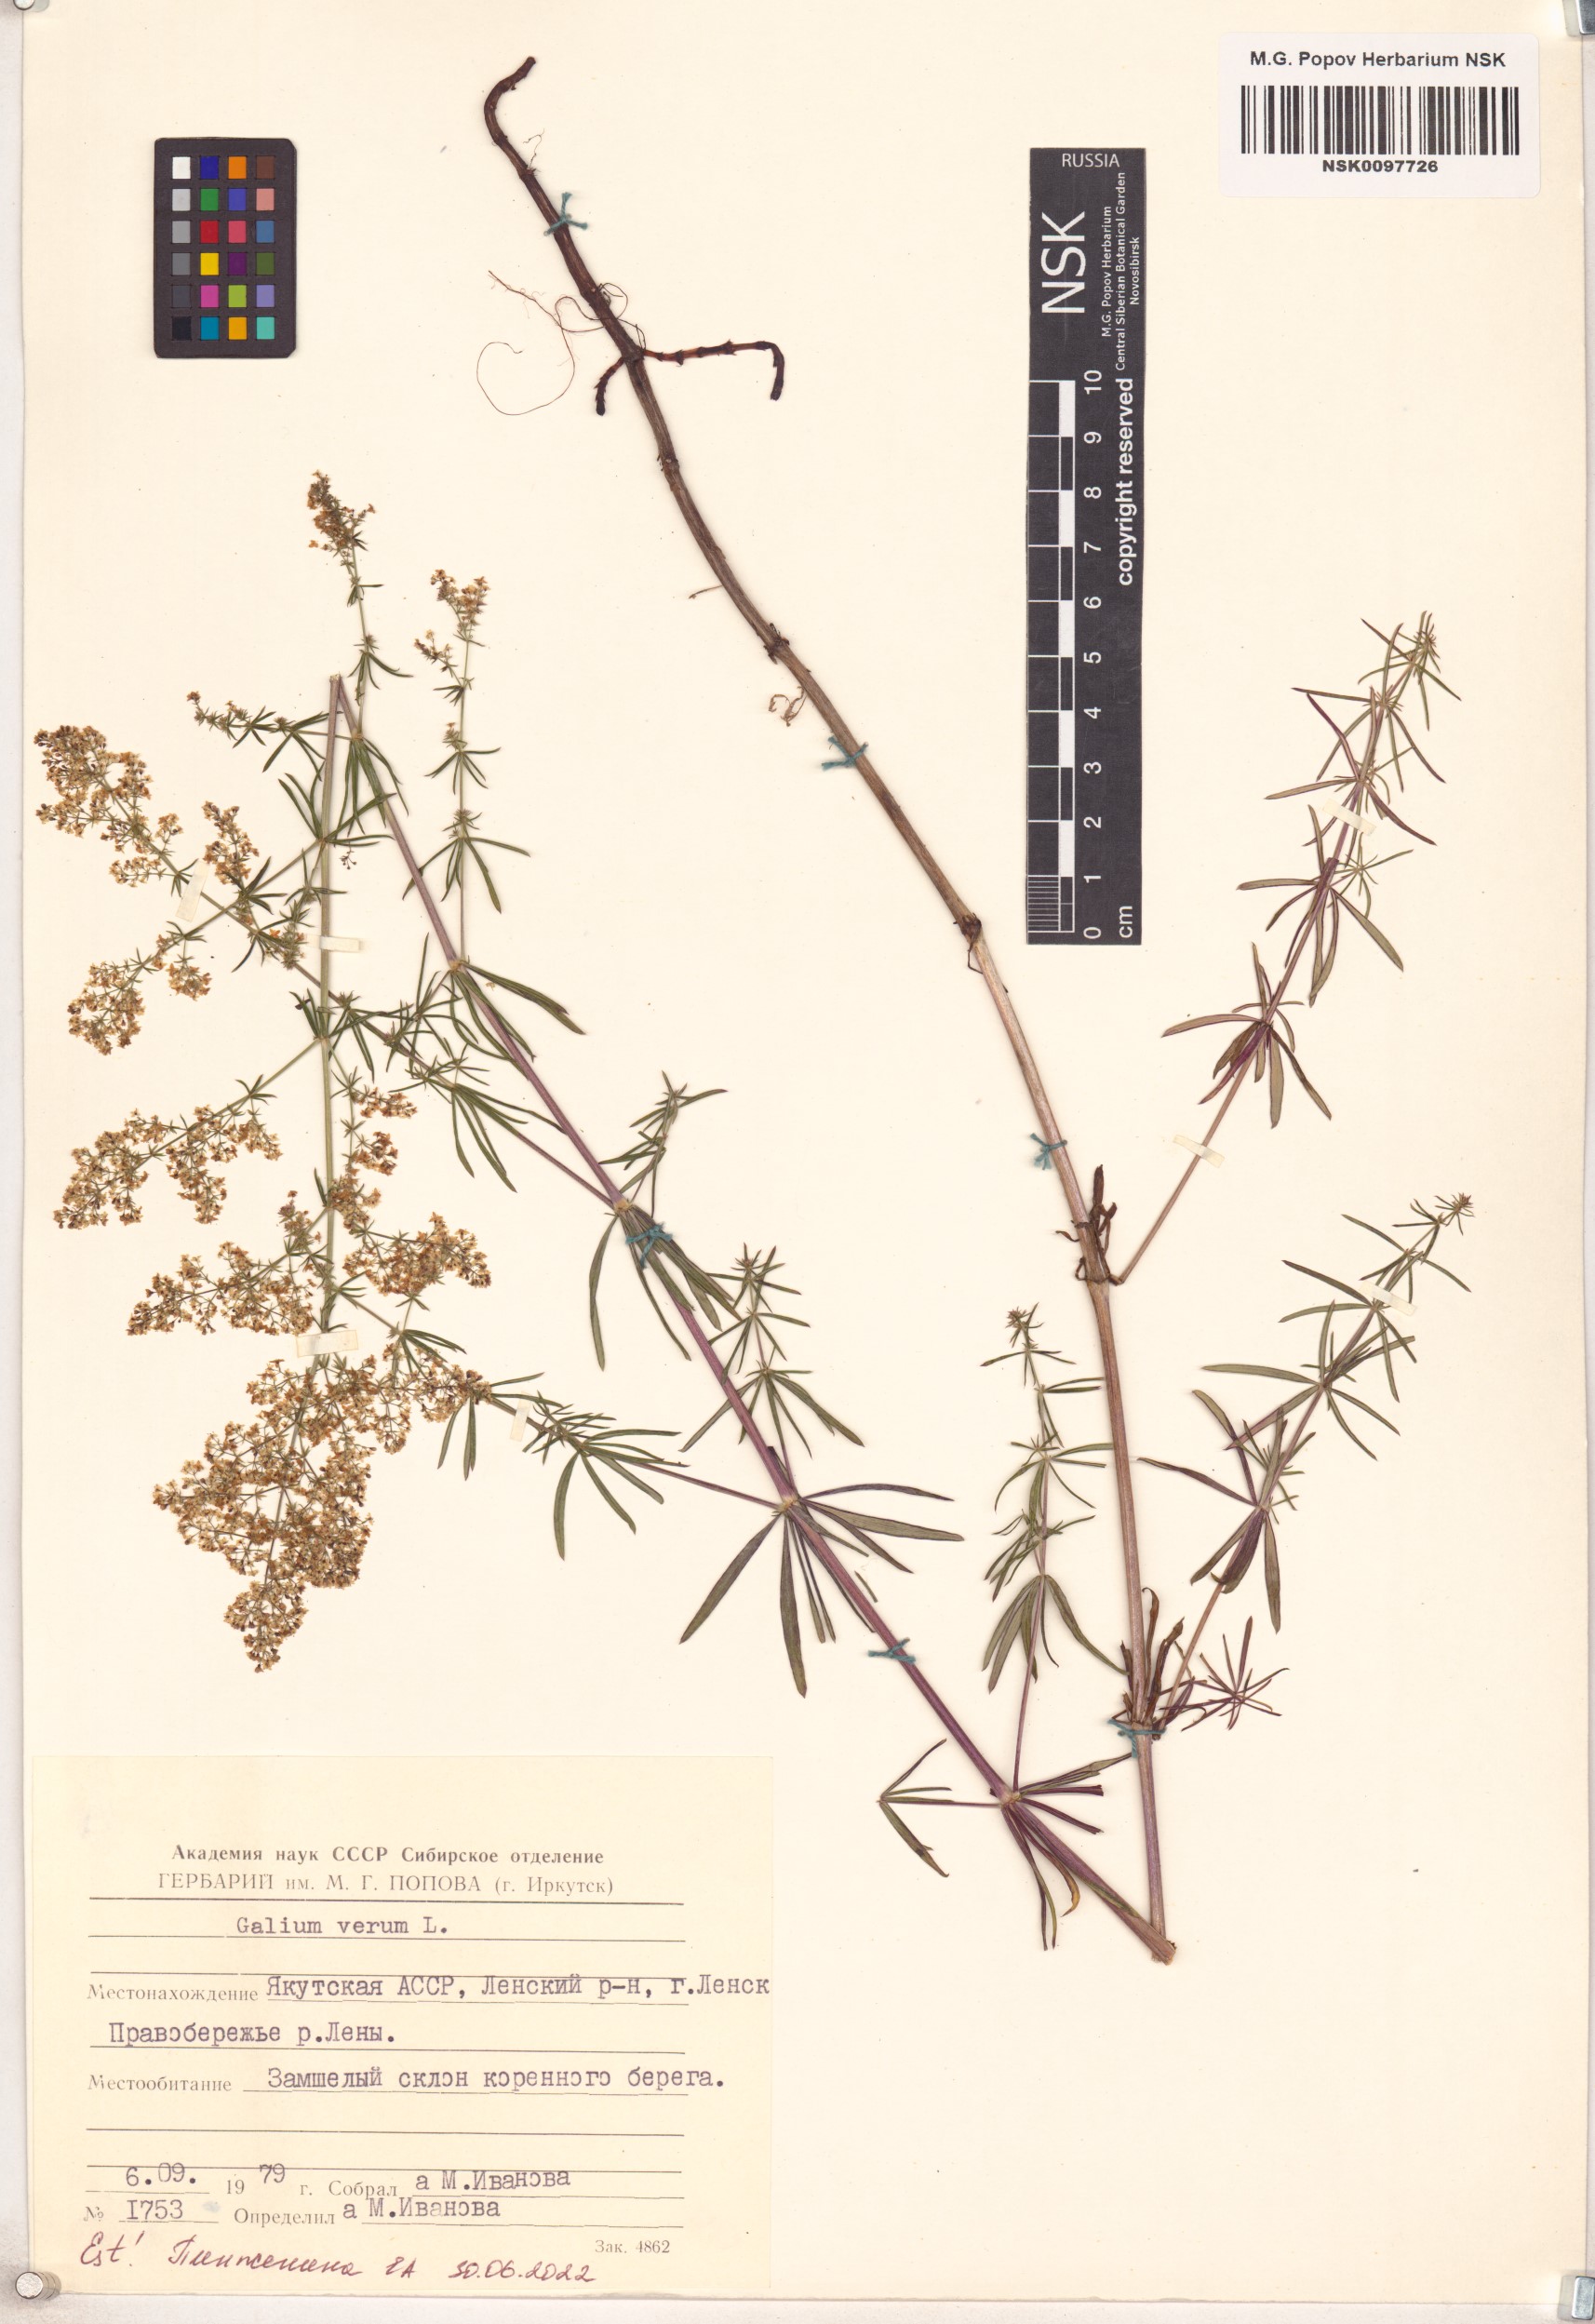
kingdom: Plantae
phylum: Tracheophyta
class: Magnoliopsida
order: Gentianales
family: Rubiaceae
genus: Galium
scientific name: Galium verum
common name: Lady's bedstraw
